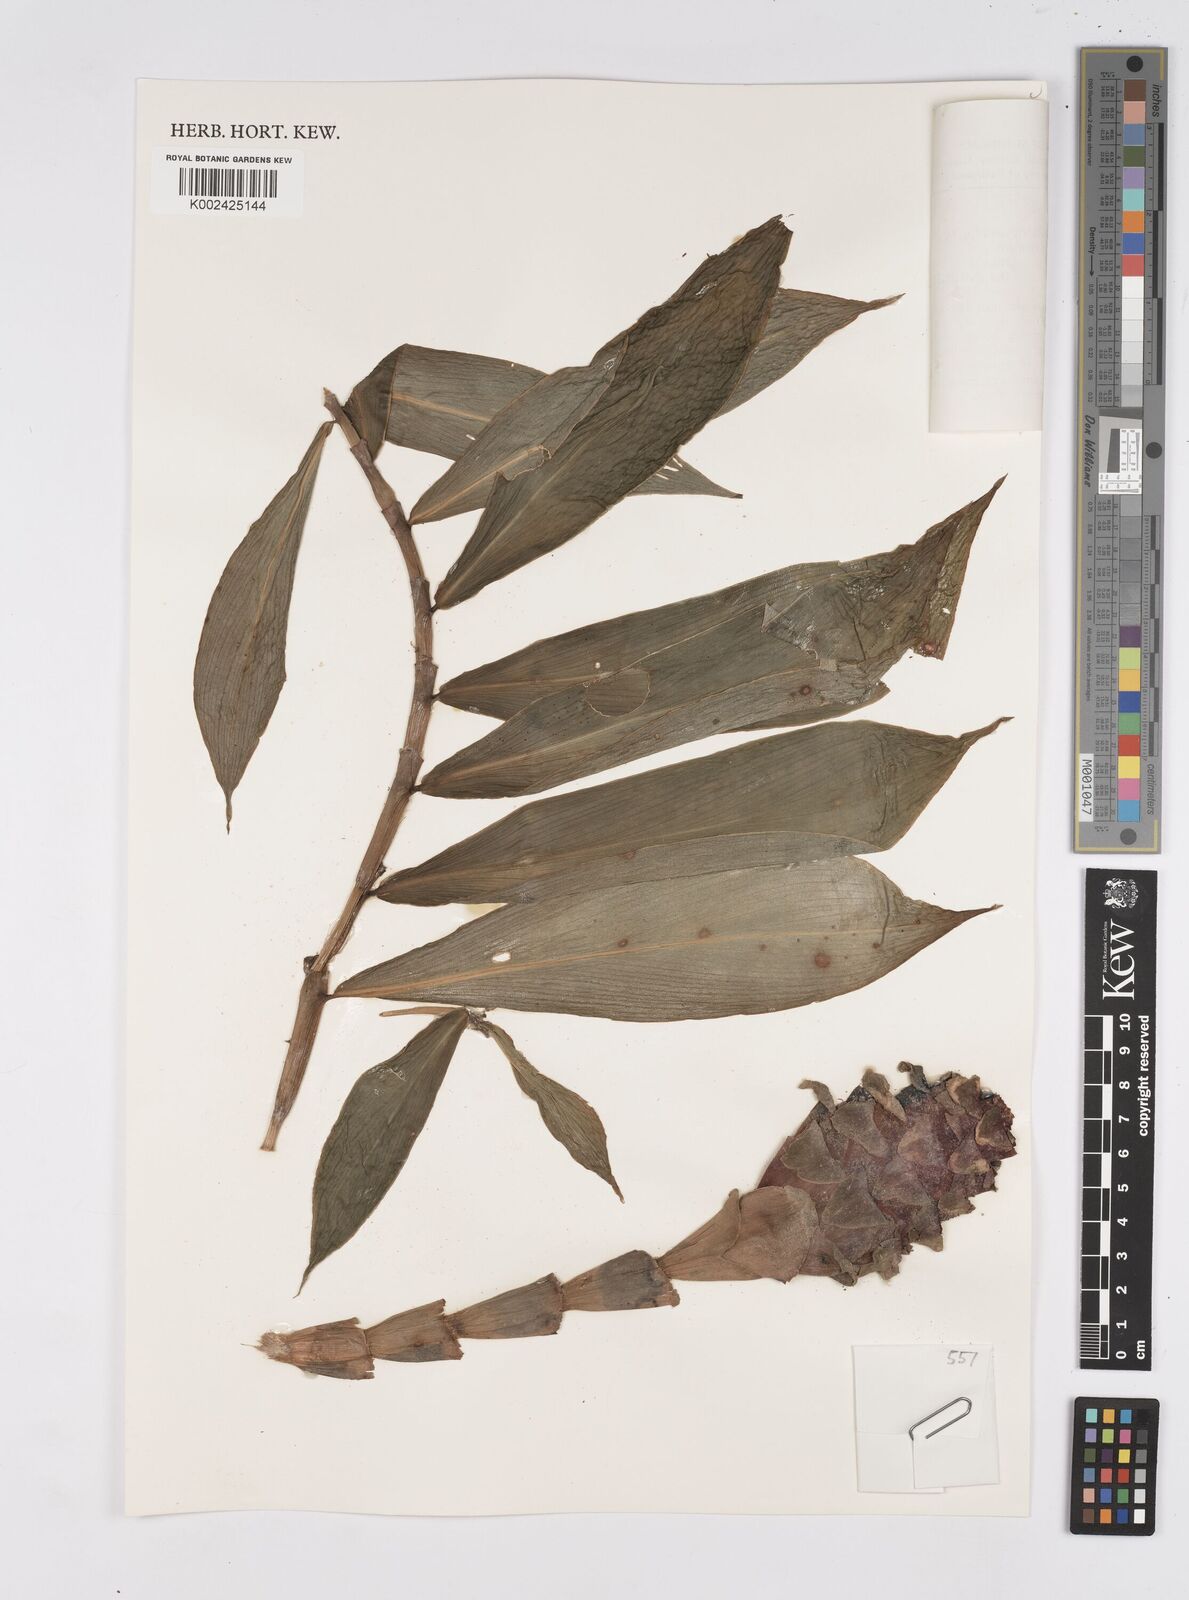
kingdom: Plantae
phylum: Tracheophyta
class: Liliopsida
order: Zingiberales
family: Costaceae
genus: Costus
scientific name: Costus claviger
